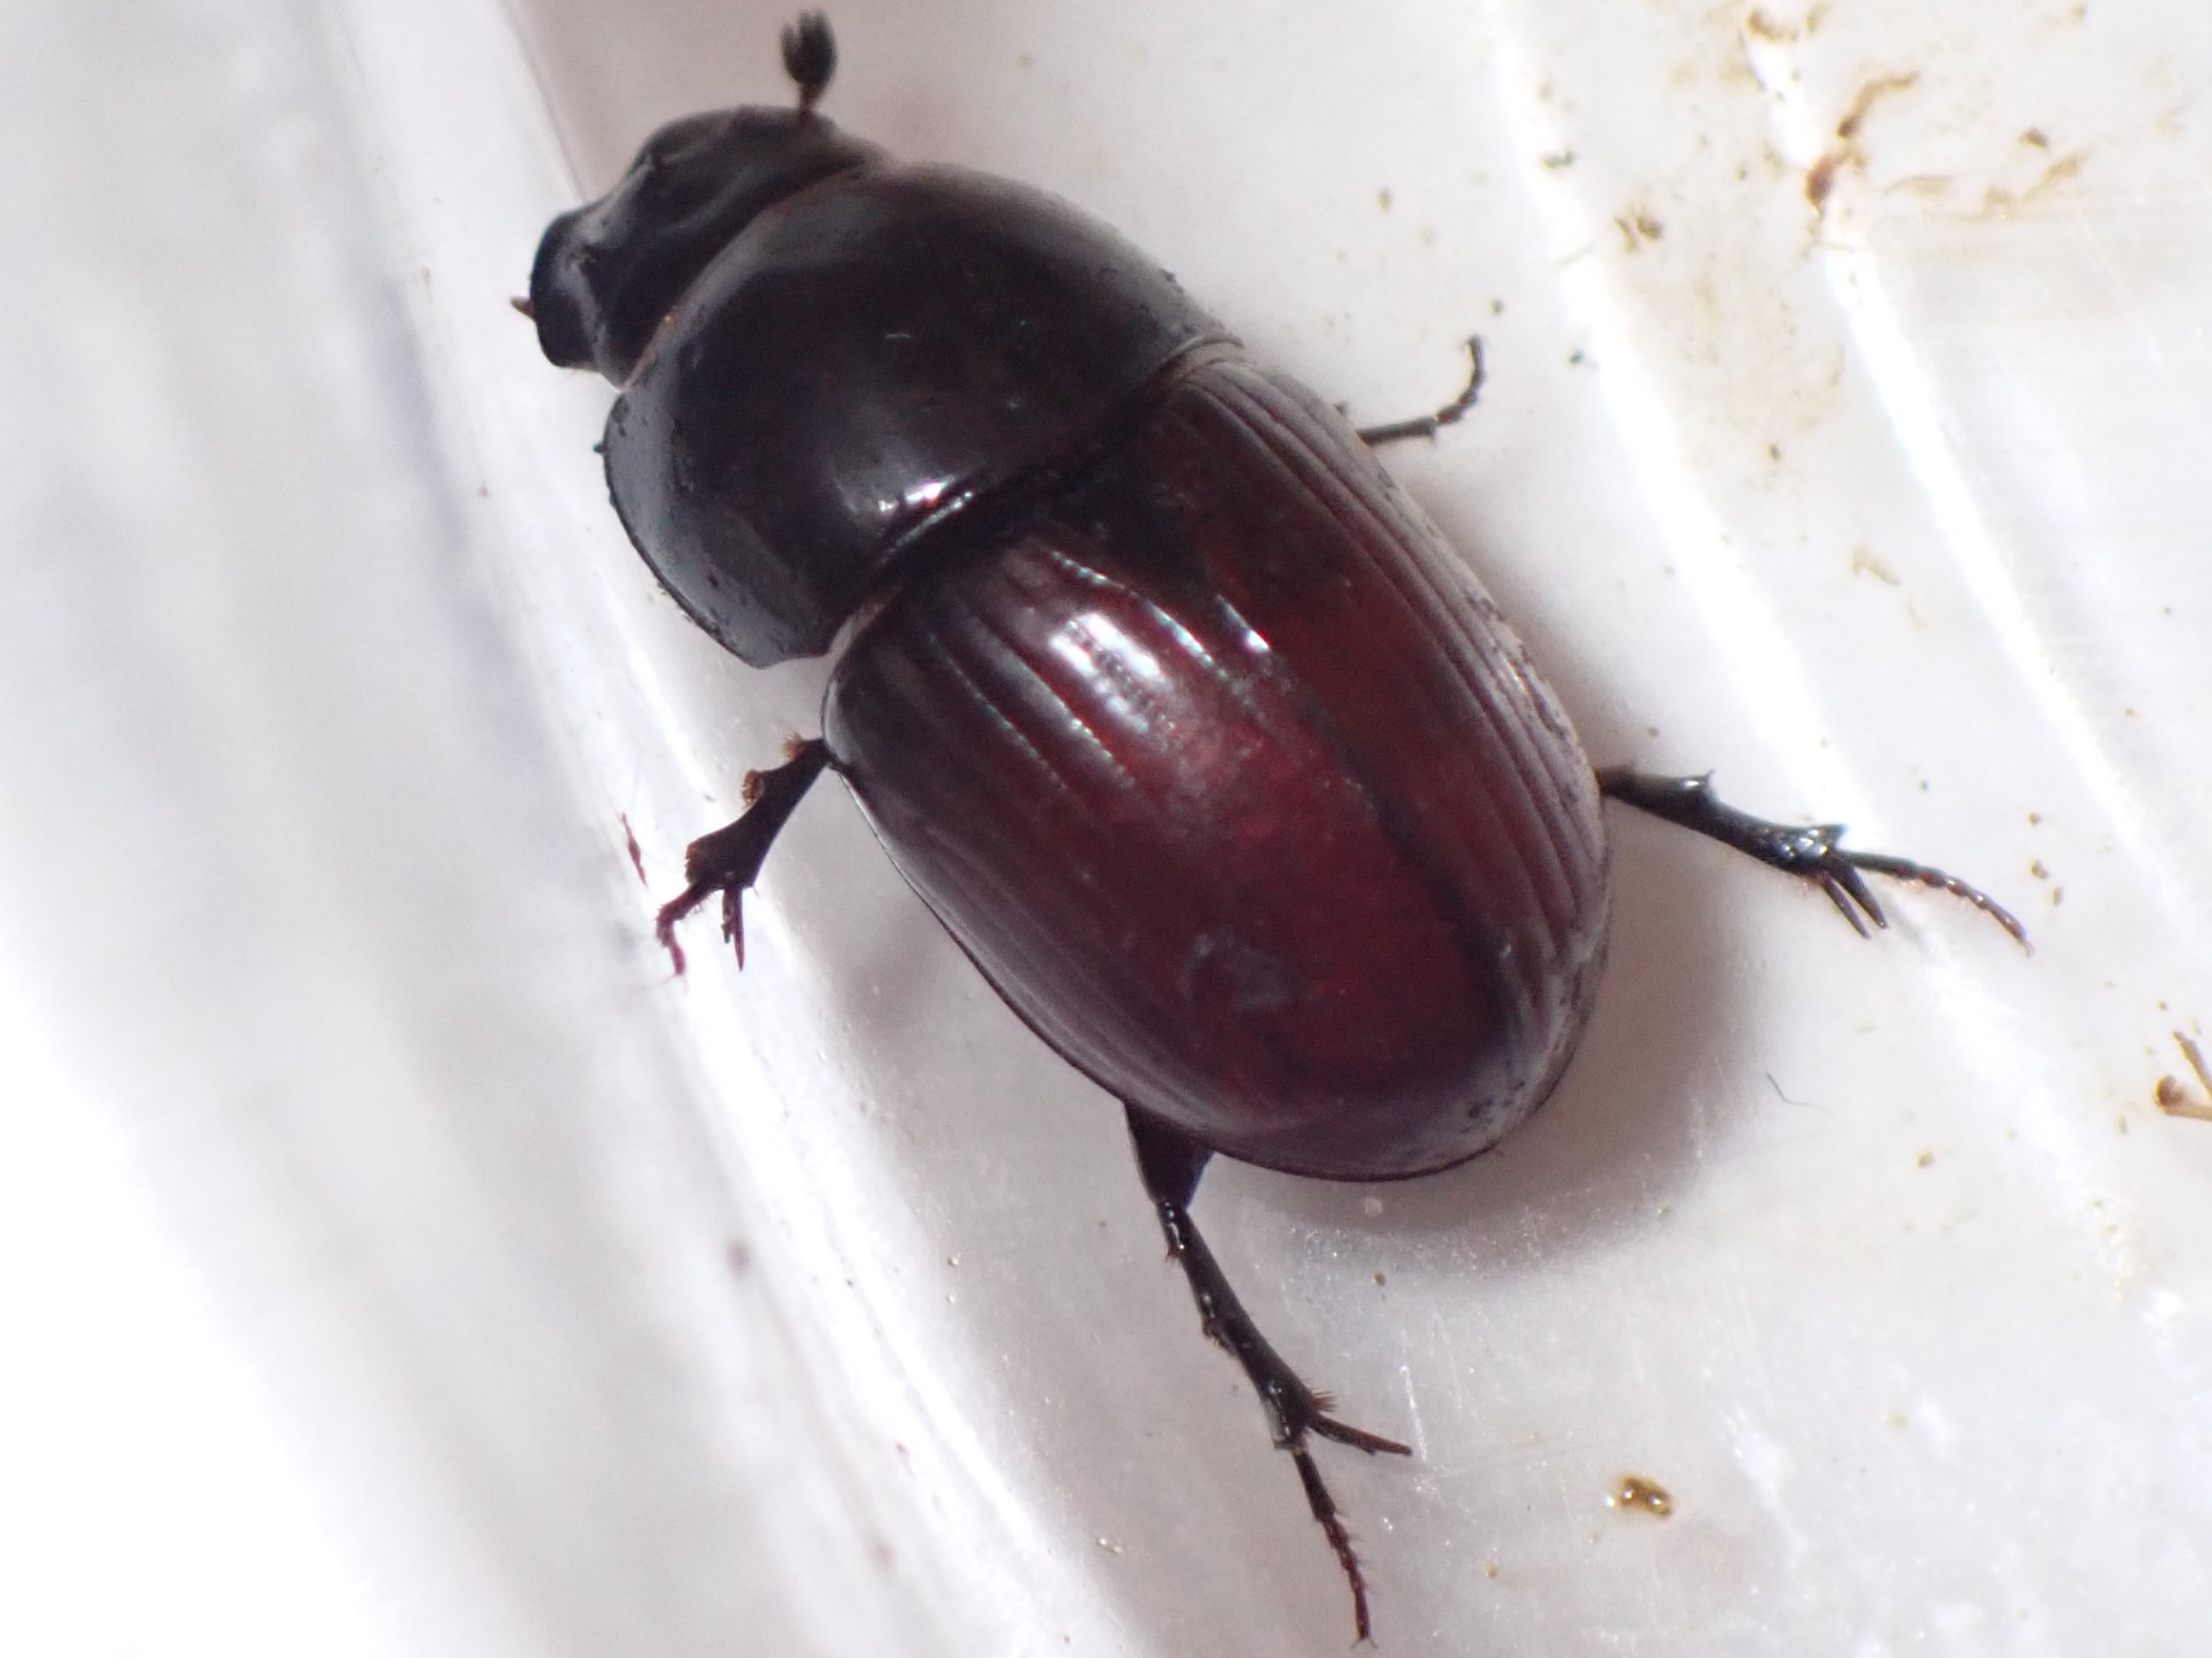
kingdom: Animalia
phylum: Arthropoda
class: Insecta
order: Coleoptera
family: Scarabaeidae
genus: Teuchestes
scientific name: Teuchestes fossor
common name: Stor møgbille
